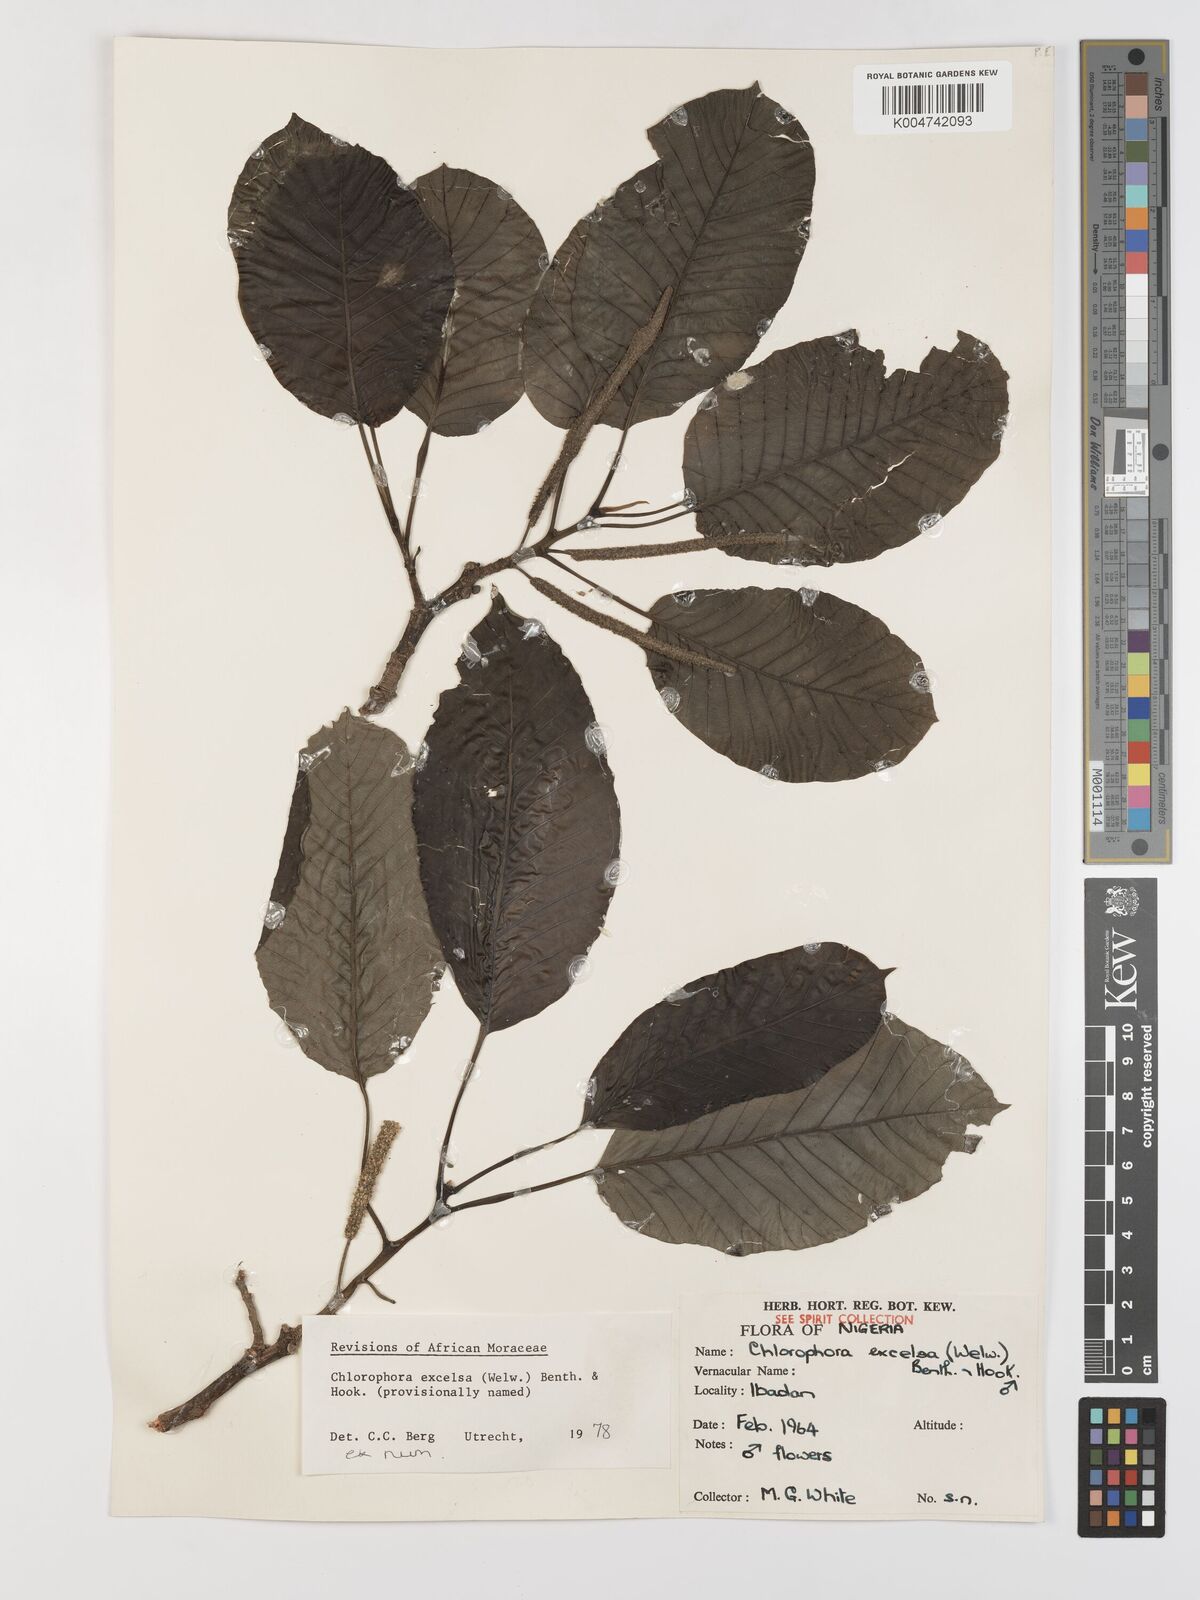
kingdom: Plantae
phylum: Tracheophyta
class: Magnoliopsida
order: Rosales
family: Moraceae
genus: Milicia
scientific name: Milicia excelsa
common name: African teak
